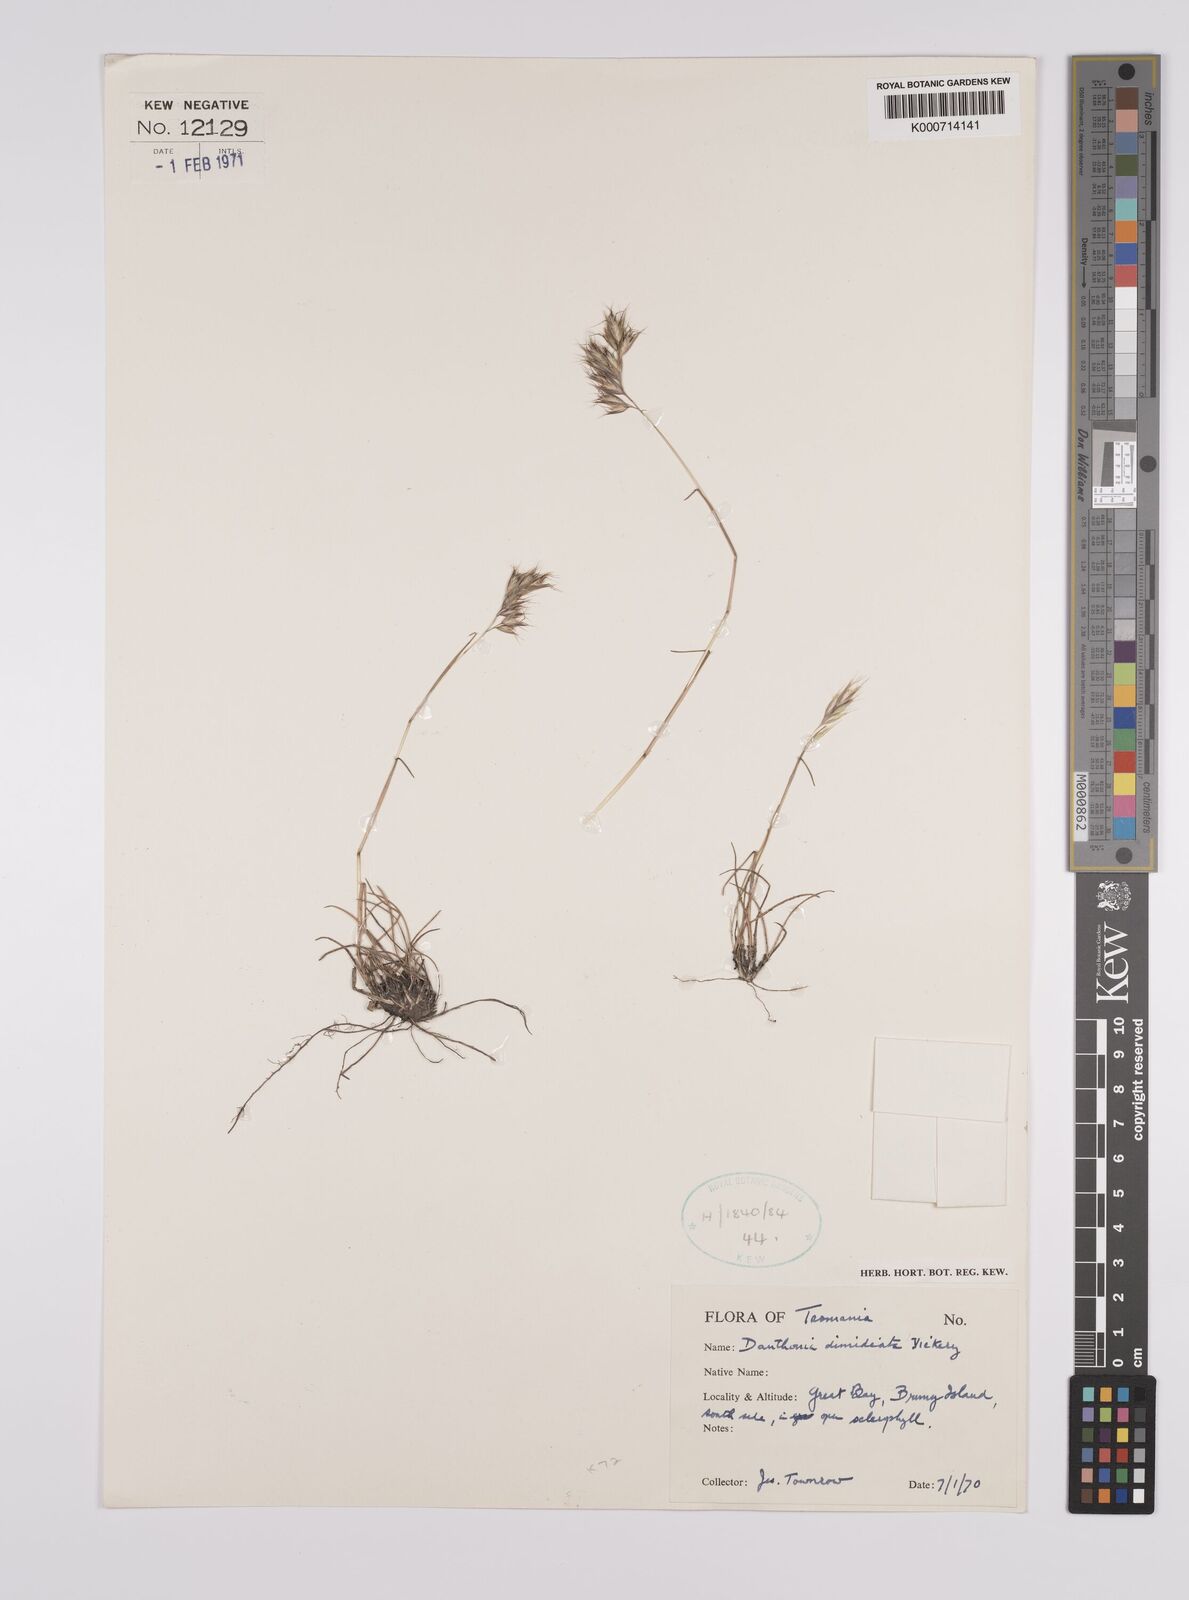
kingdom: Plantae
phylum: Tracheophyta
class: Liliopsida
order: Poales
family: Poaceae
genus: Rytidosperma
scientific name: Rytidosperma dimidiatum
